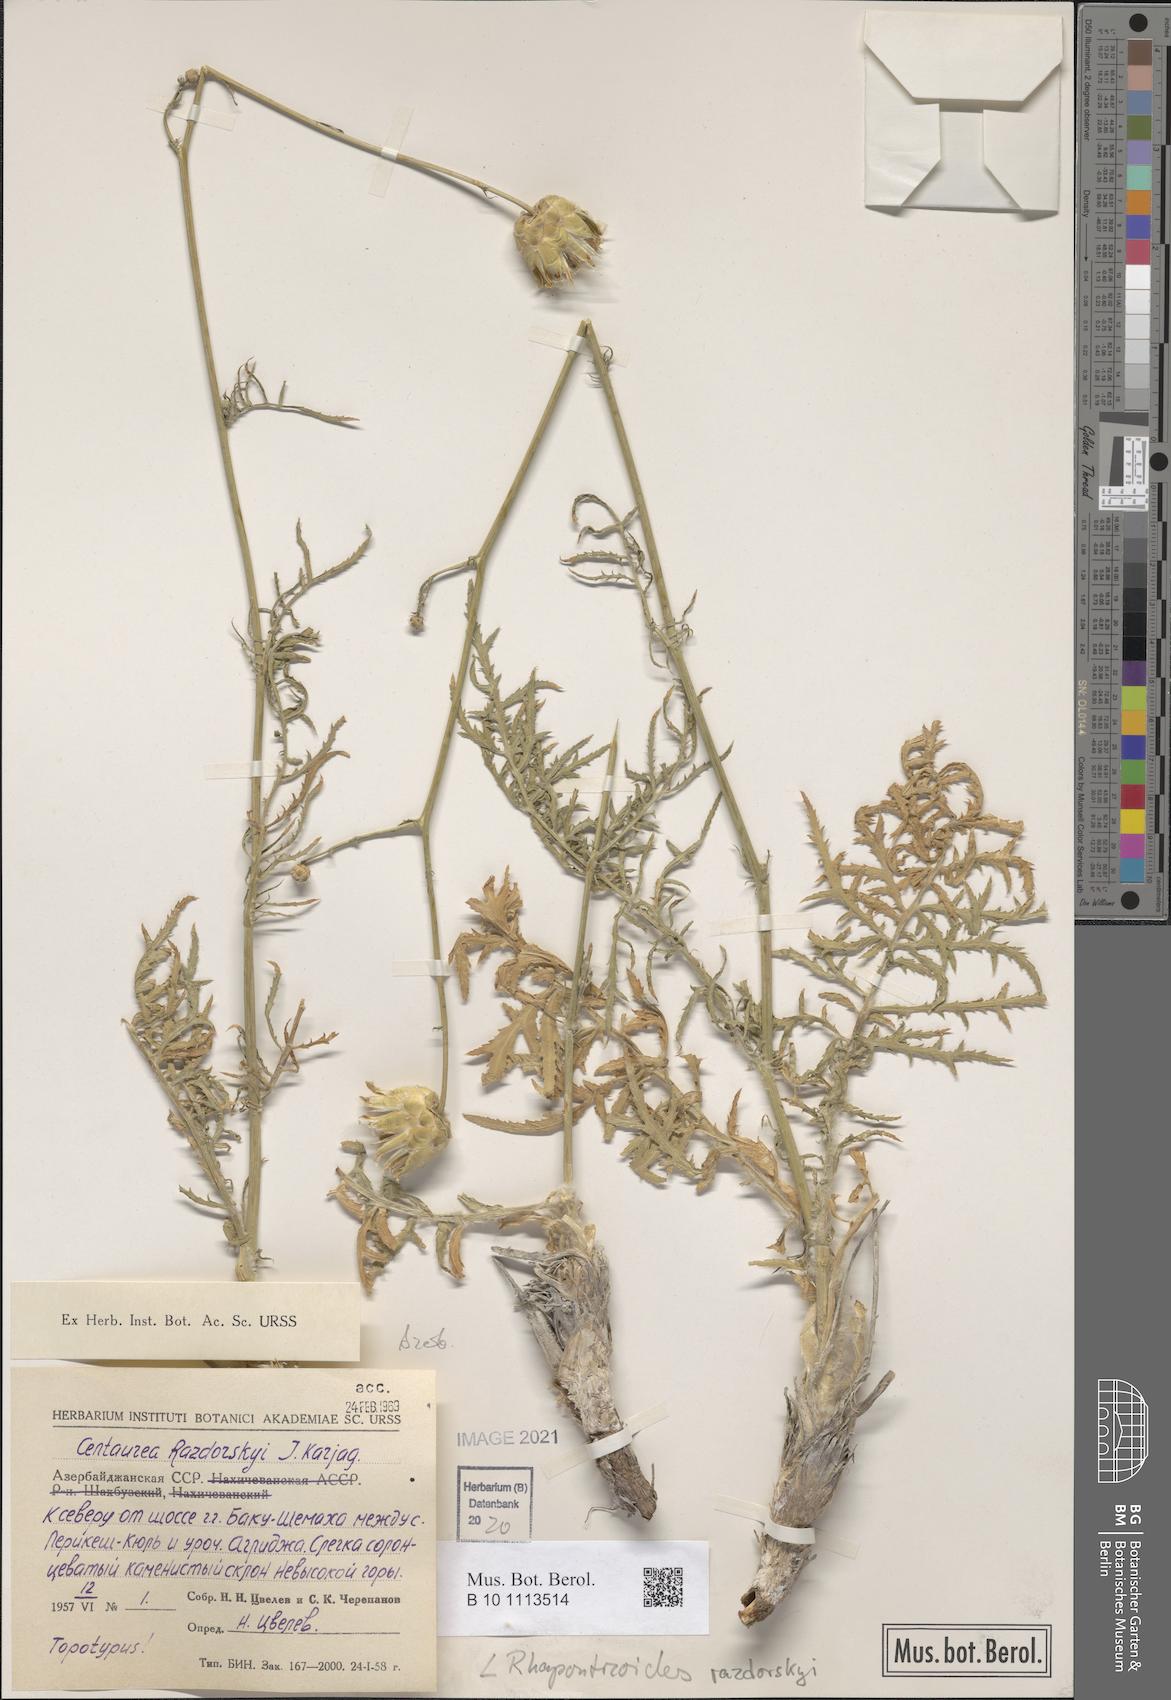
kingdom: Plantae
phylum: Tracheophyta
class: Magnoliopsida
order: Asterales
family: Asteraceae
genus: Rhaponticoides
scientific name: Rhaponticoides razdorskyi
